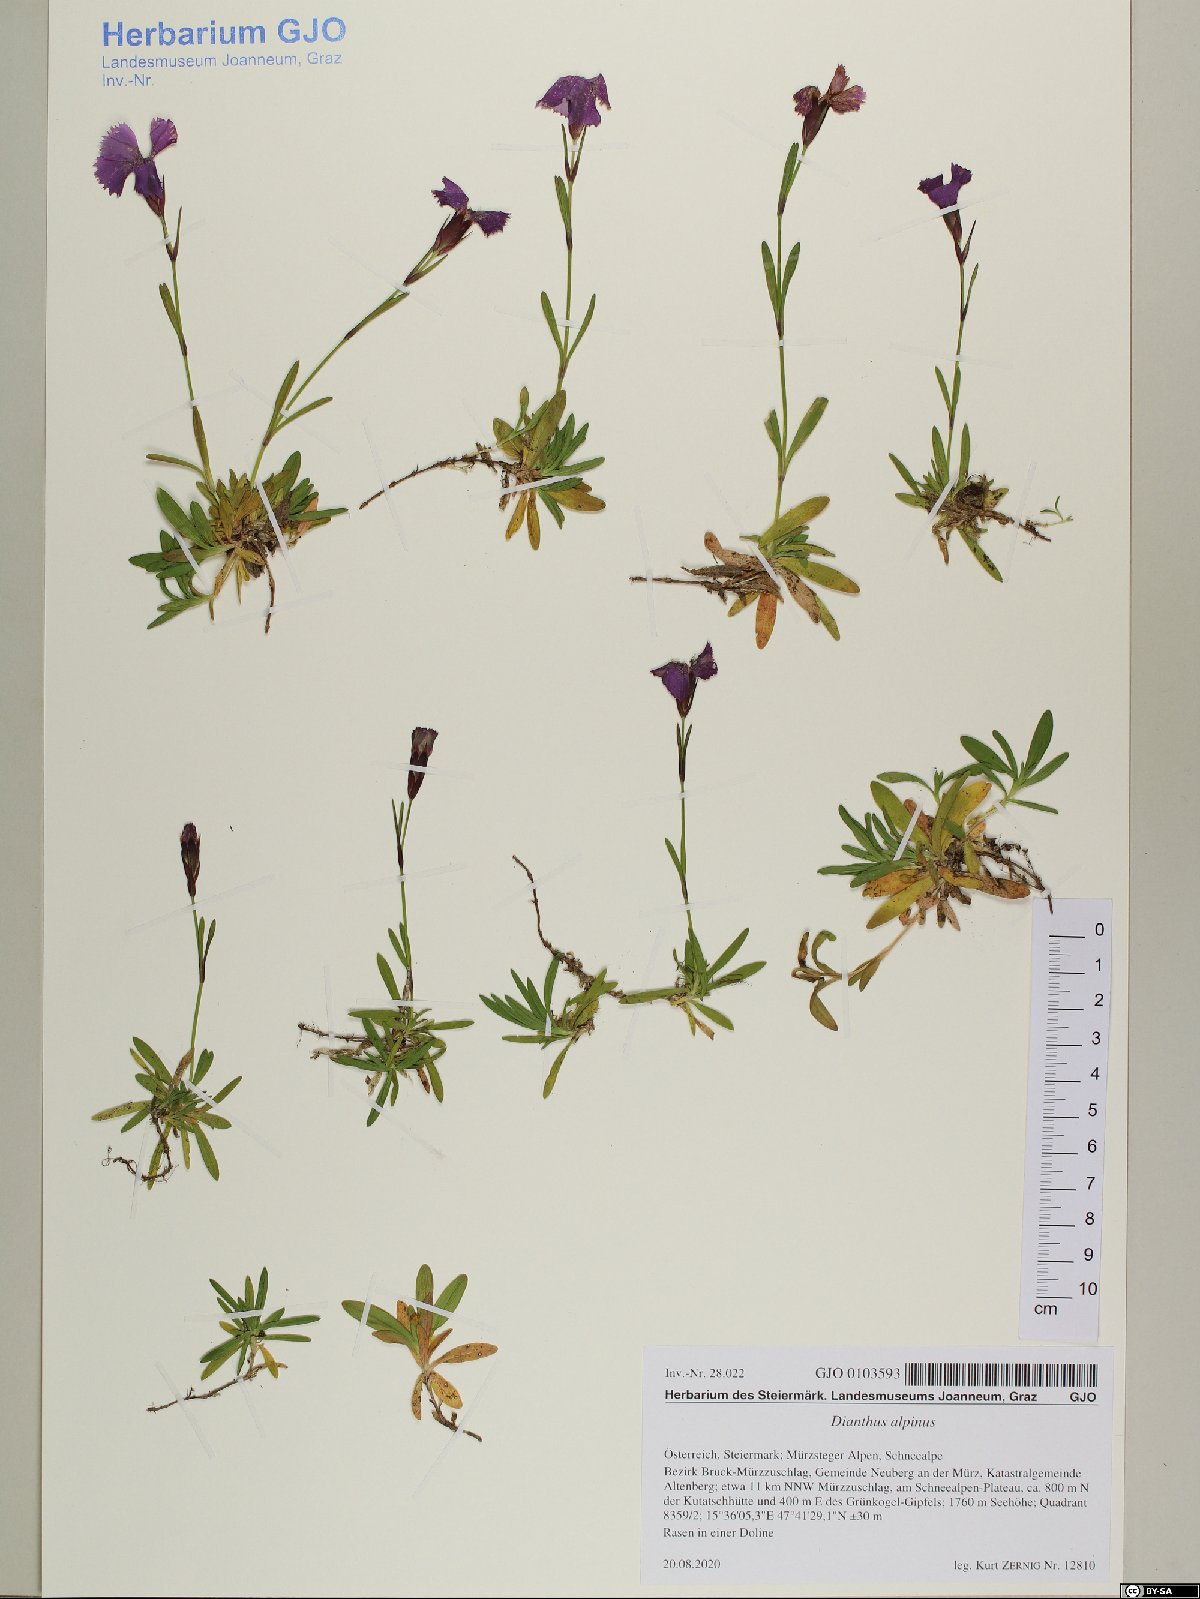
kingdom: Plantae
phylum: Tracheophyta
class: Magnoliopsida
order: Caryophyllales
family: Caryophyllaceae
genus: Dianthus
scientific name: Dianthus alpinus
